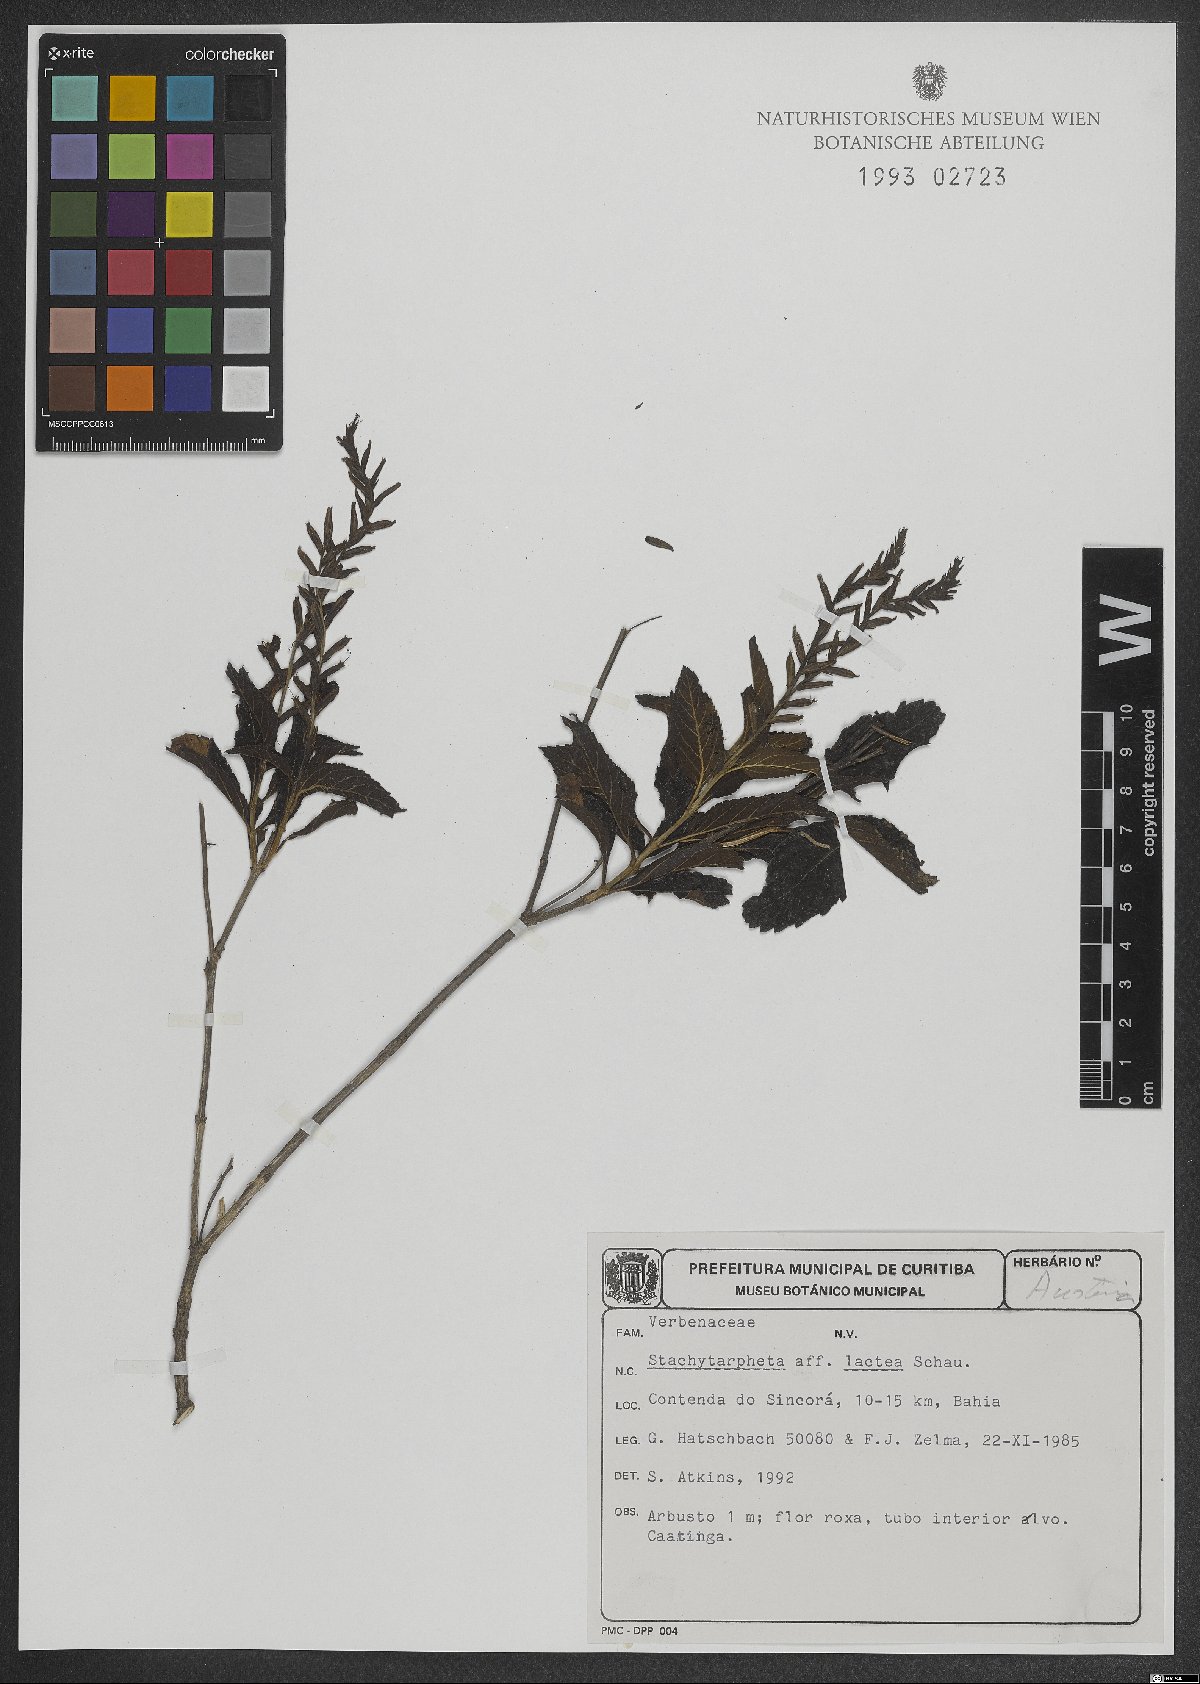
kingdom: Plantae
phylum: Tracheophyta
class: Magnoliopsida
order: Lamiales
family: Verbenaceae
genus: Stachytarpheta
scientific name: Stachytarpheta polyura
